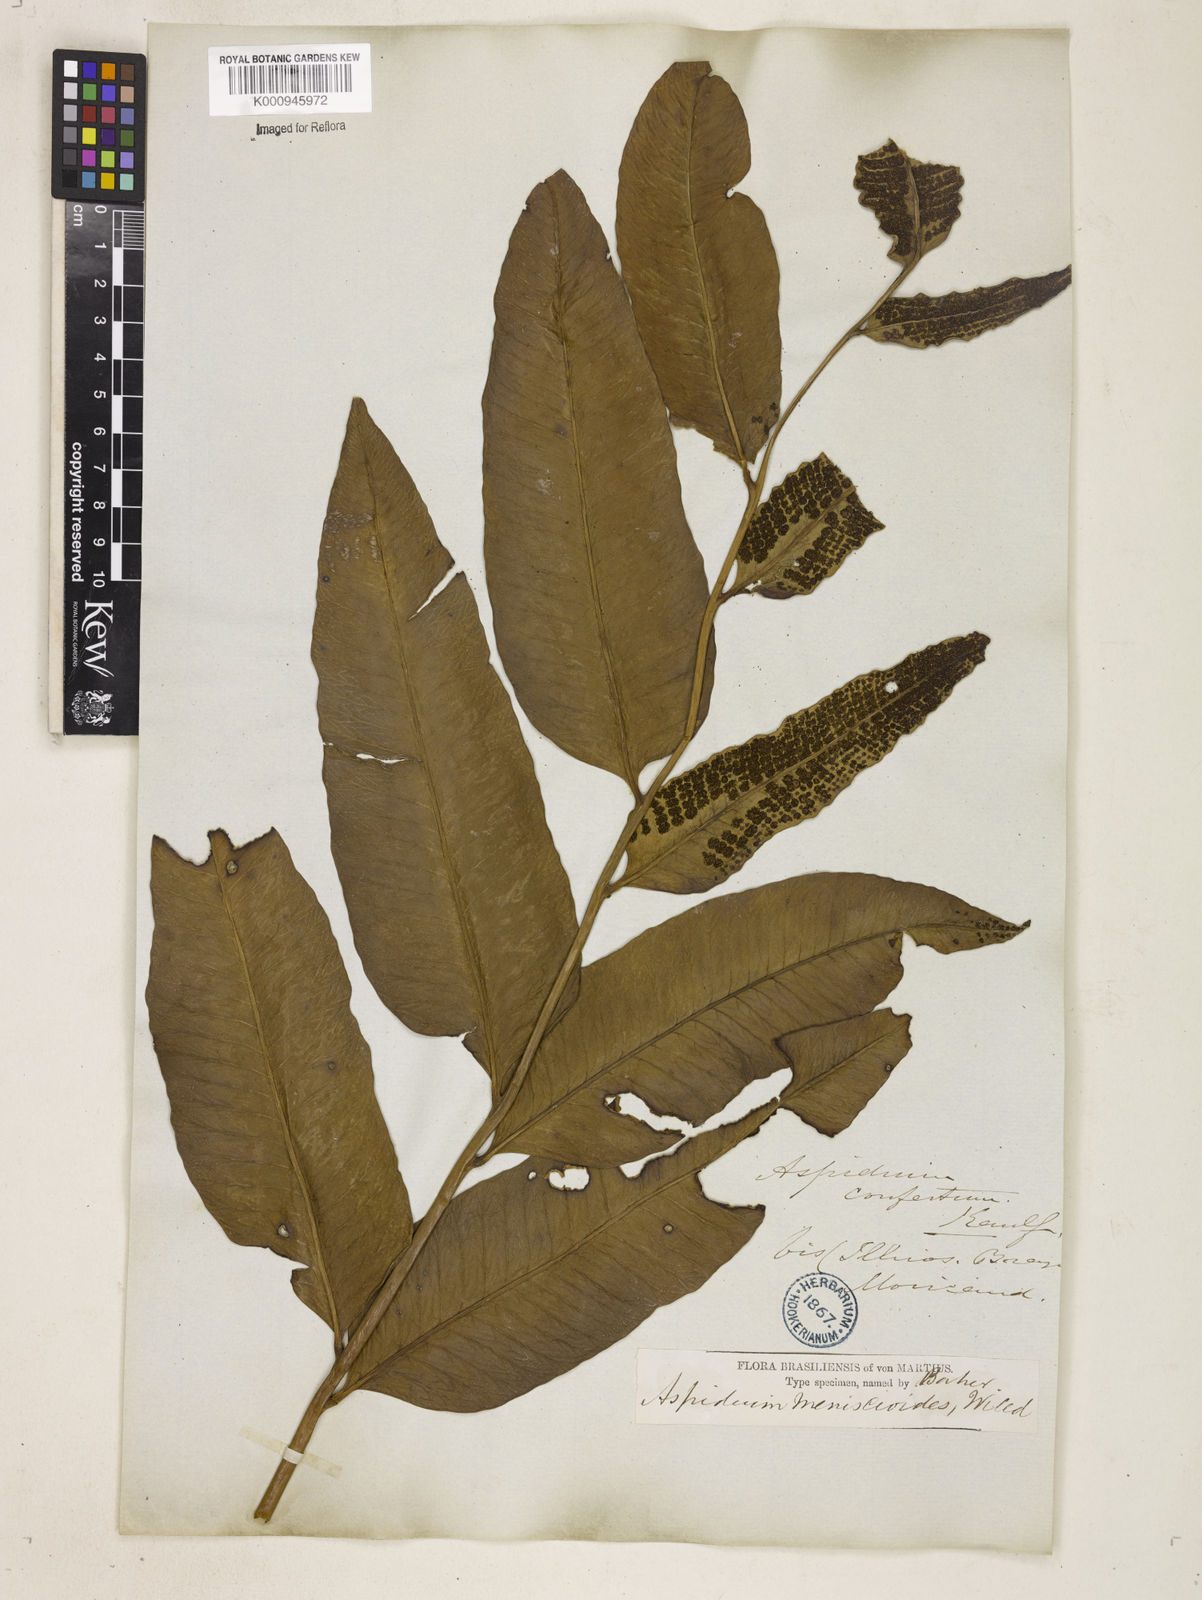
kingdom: Plantae
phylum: Tracheophyta
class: Polypodiopsida
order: Polypodiales
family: Dryopteridaceae
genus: Cyclodium
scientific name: Cyclodium meniscioides
